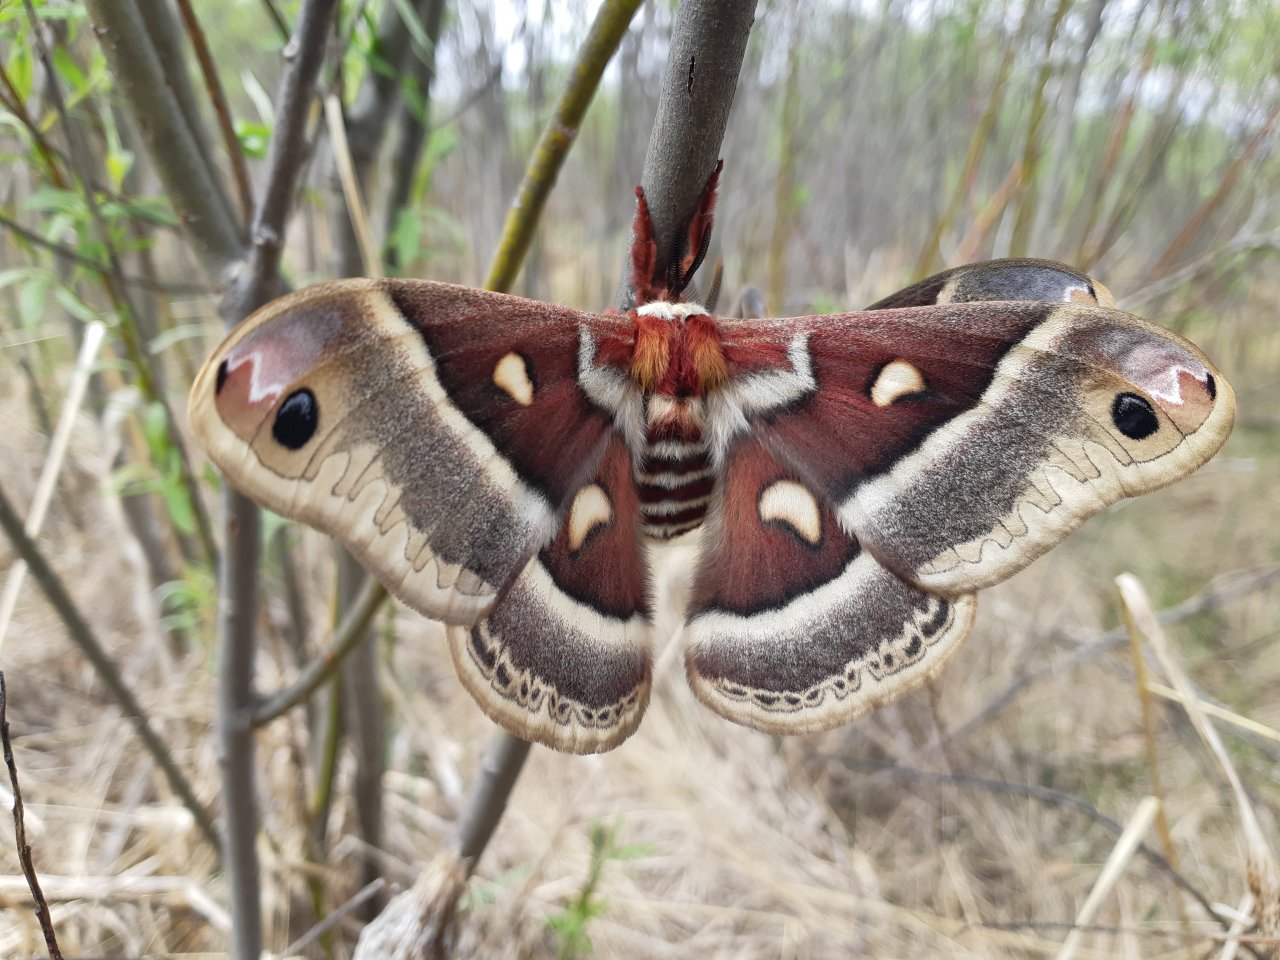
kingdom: Animalia
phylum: Arthropoda
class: Insecta
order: Lepidoptera
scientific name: Lepidoptera
